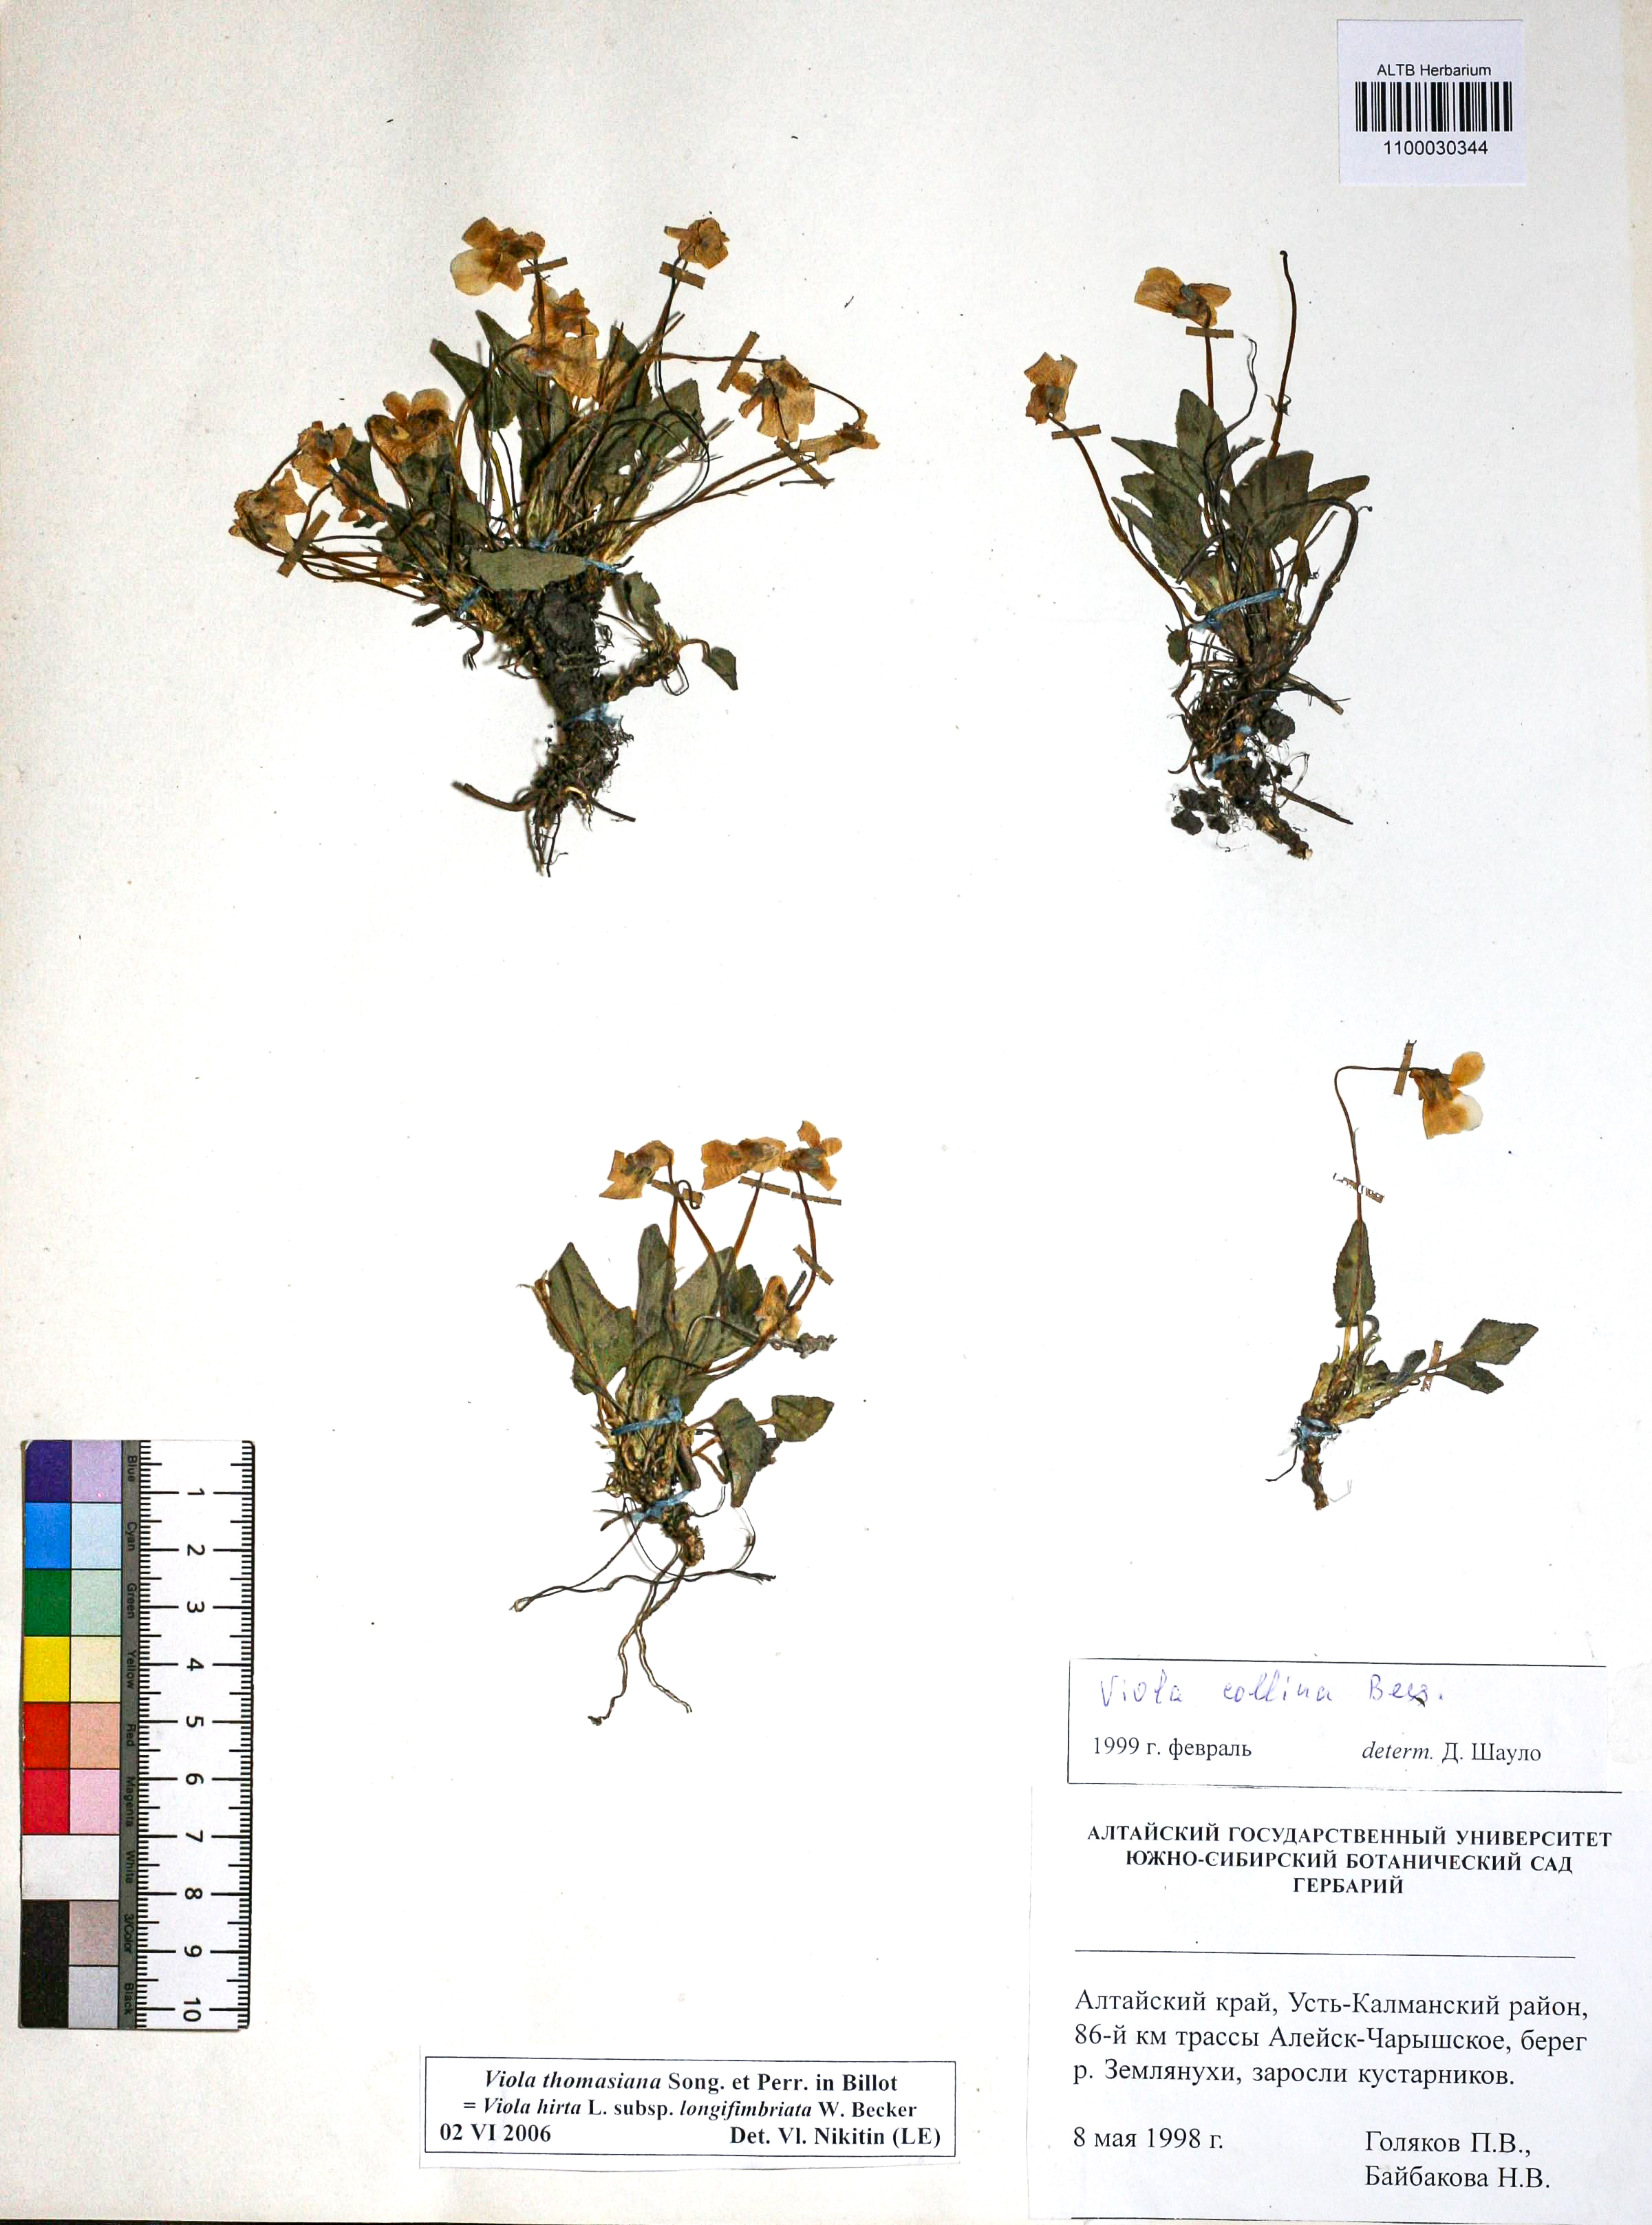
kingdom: Plantae
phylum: Tracheophyta
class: Magnoliopsida
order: Malpighiales
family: Violaceae
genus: Viola
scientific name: Viola thomasiana
